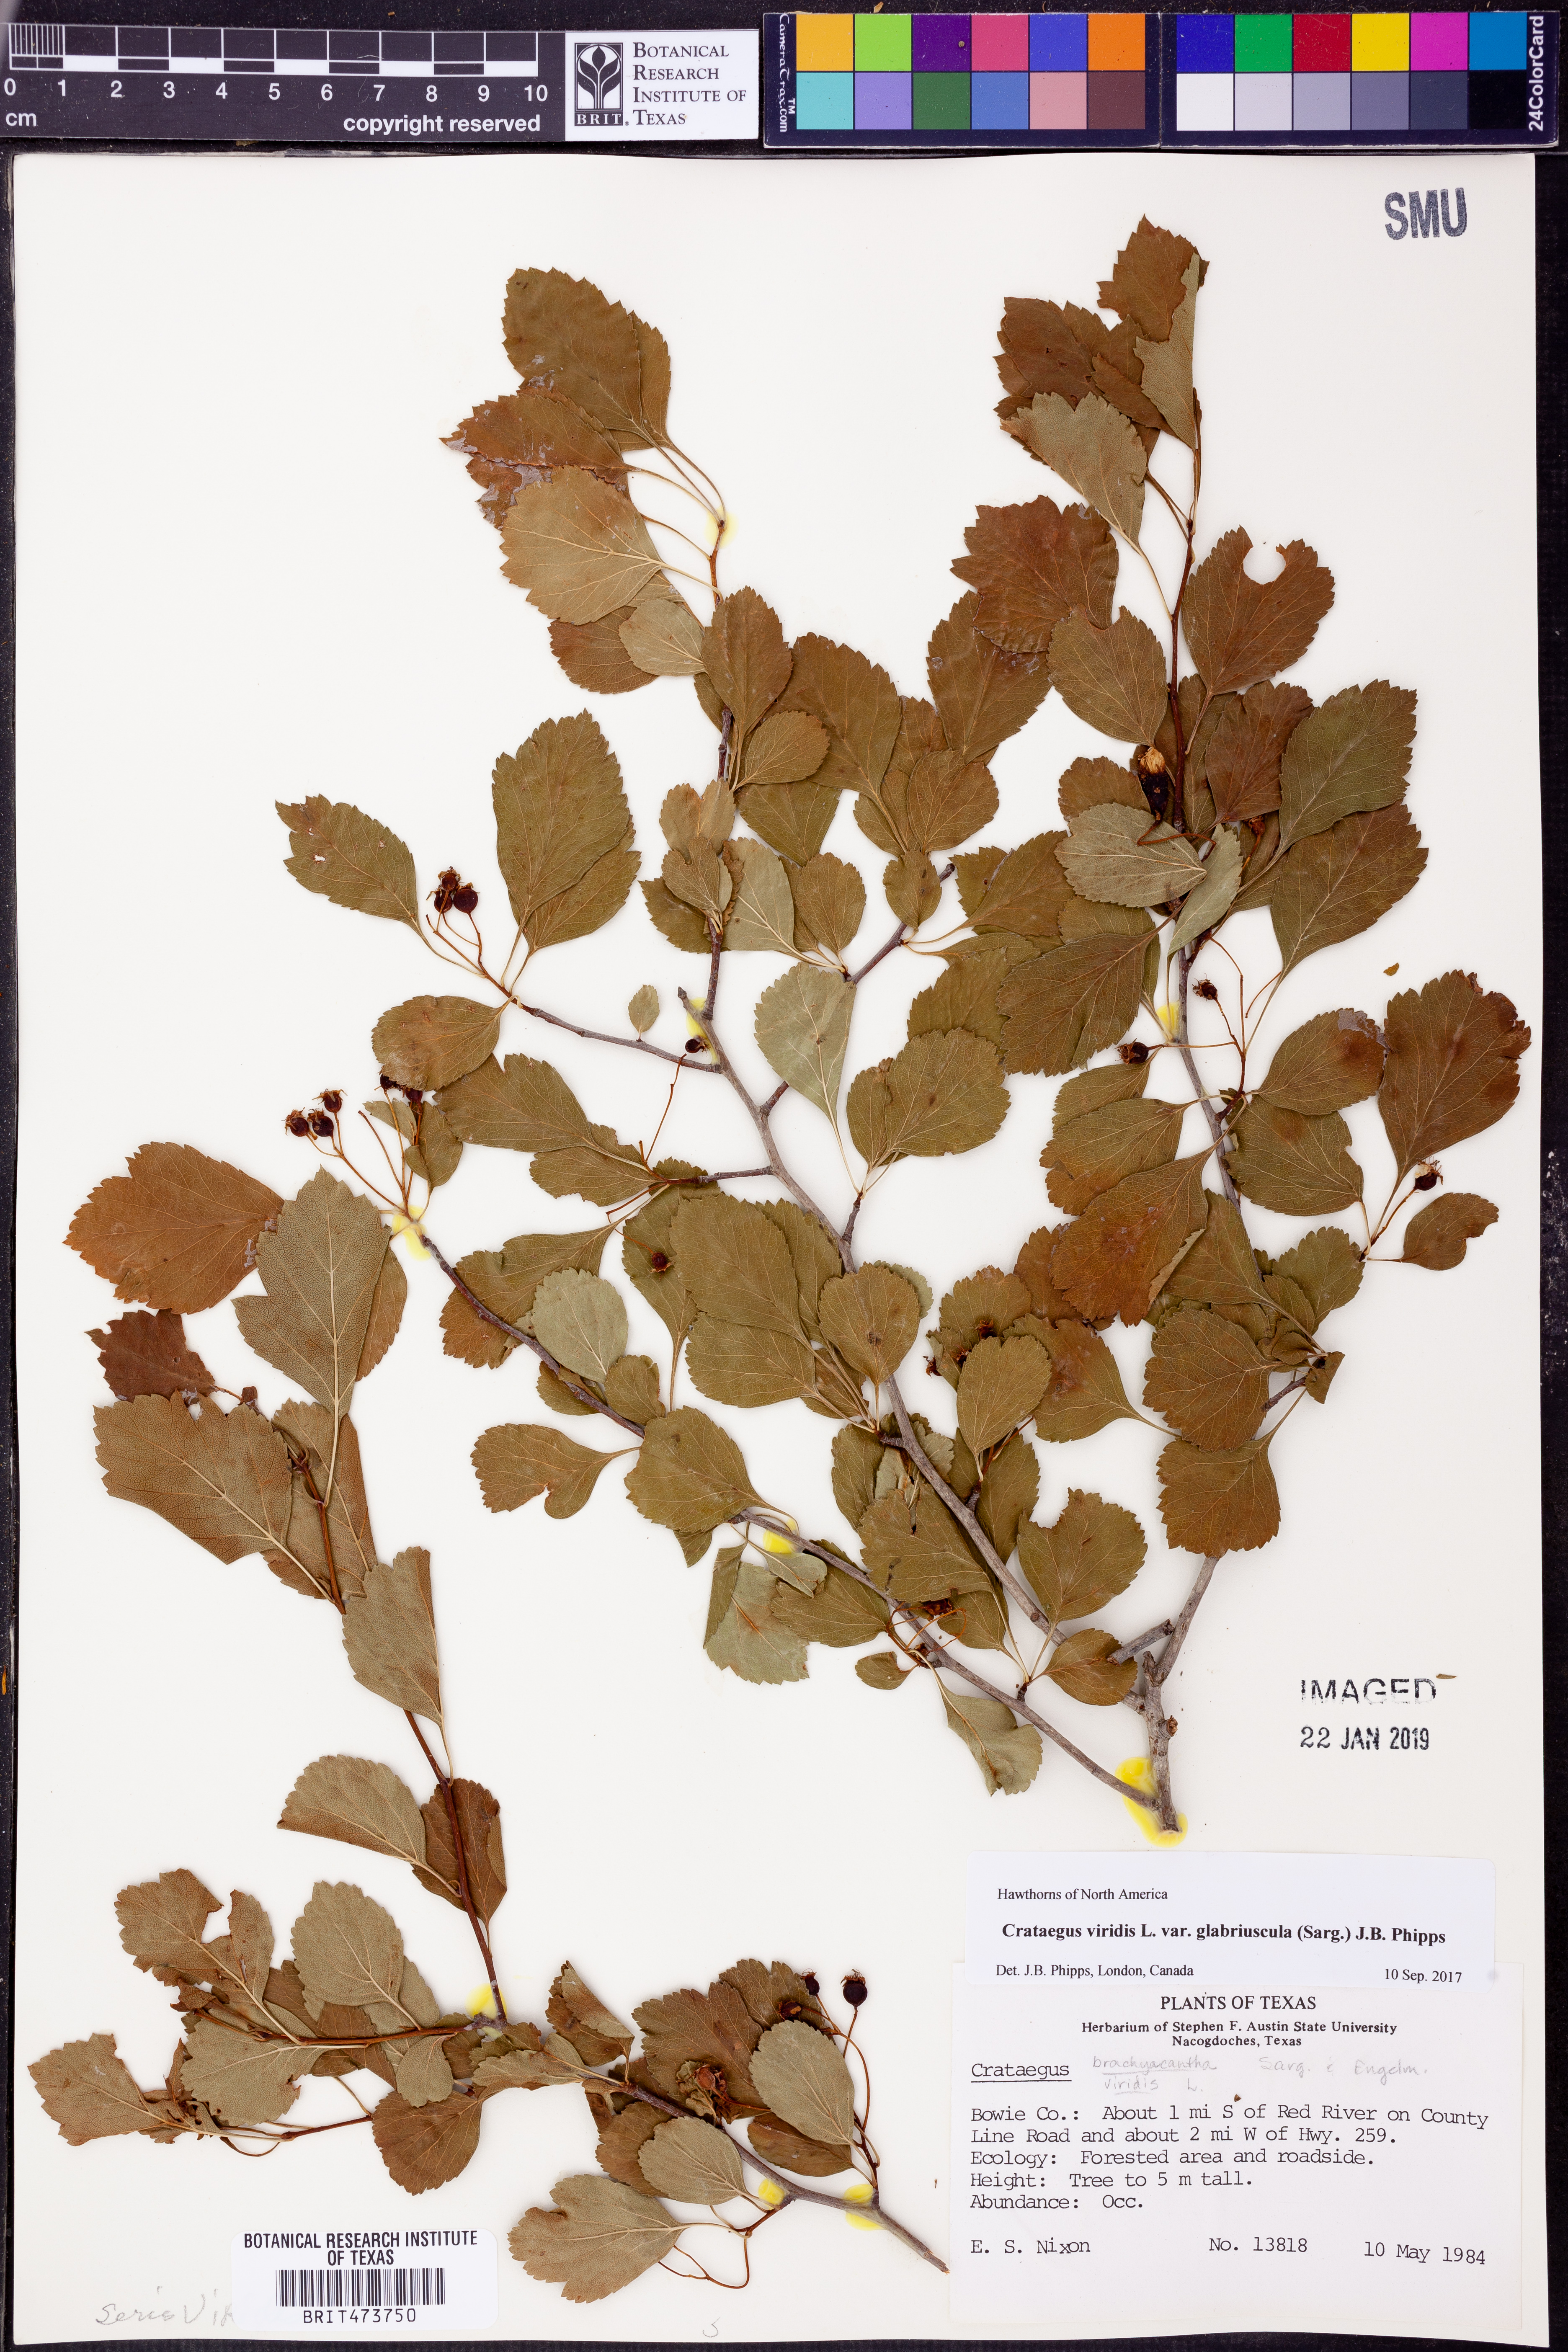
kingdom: Plantae
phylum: Tracheophyta
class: Magnoliopsida
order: Rosales
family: Rosaceae
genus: Crataegus
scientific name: Crataegus viridis
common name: Southernthorn
